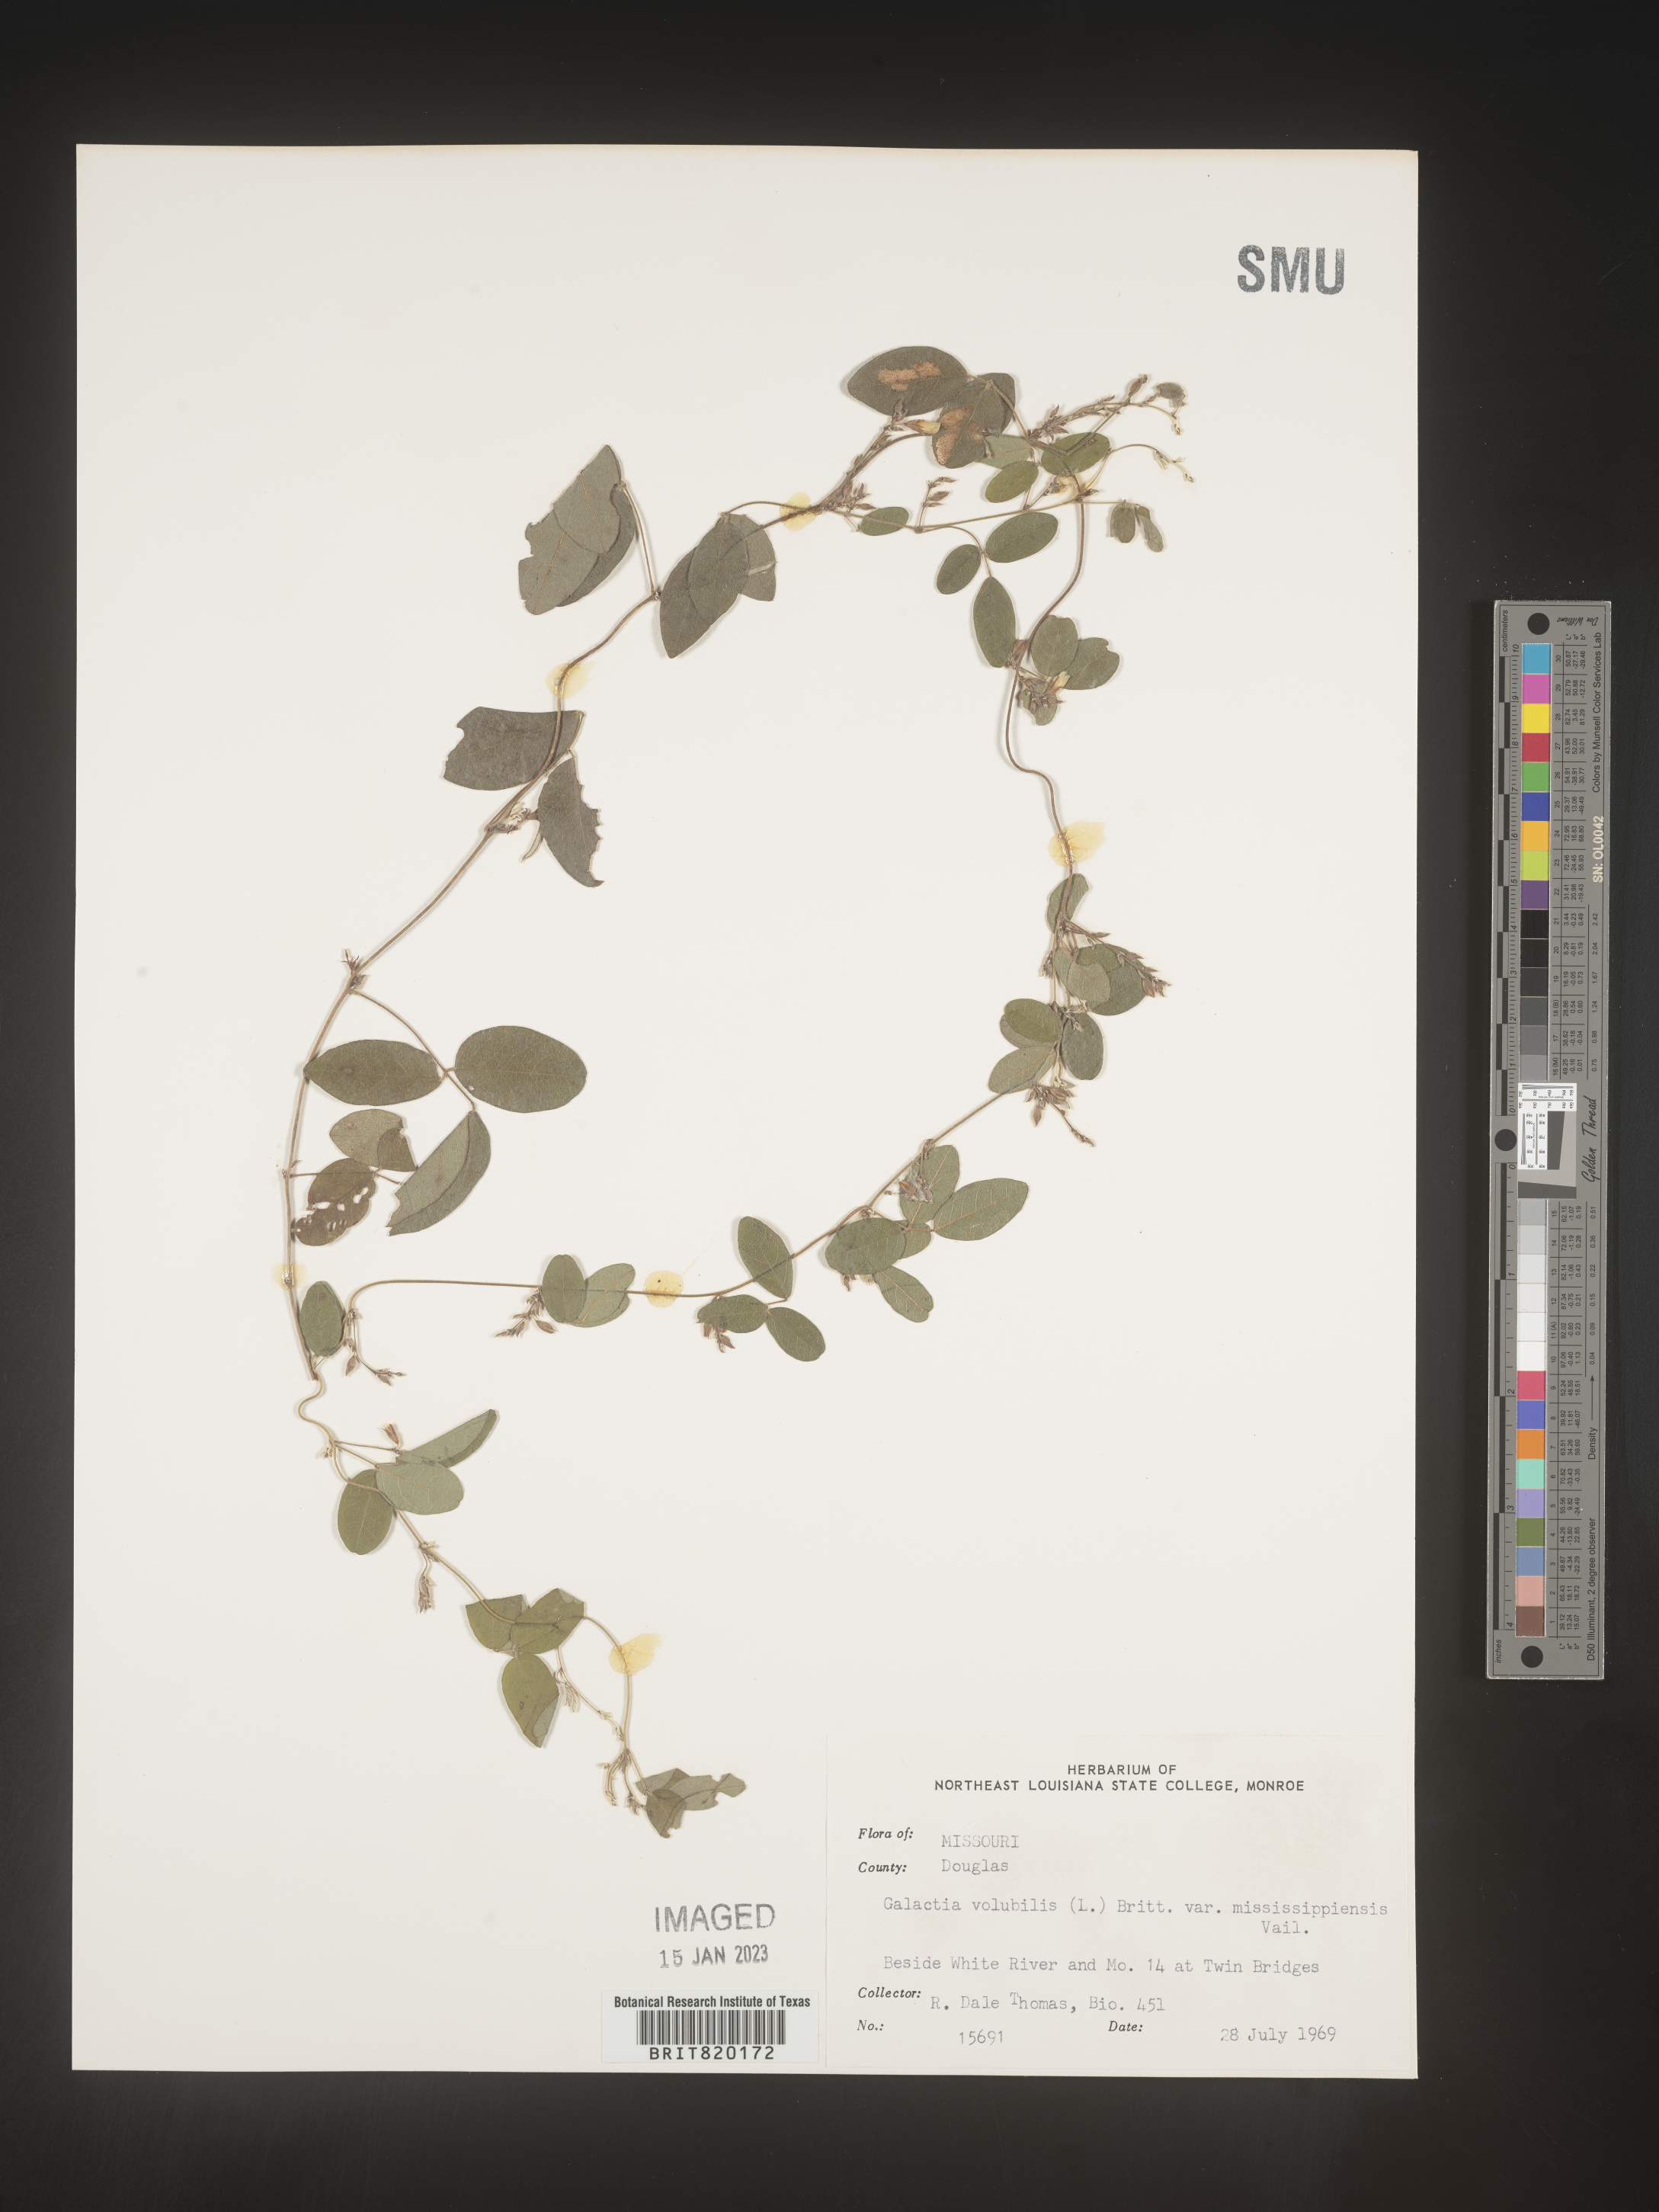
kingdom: Plantae
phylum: Tracheophyta
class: Magnoliopsida
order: Fabales
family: Fabaceae
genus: Galactia
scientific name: Galactia volubilis
